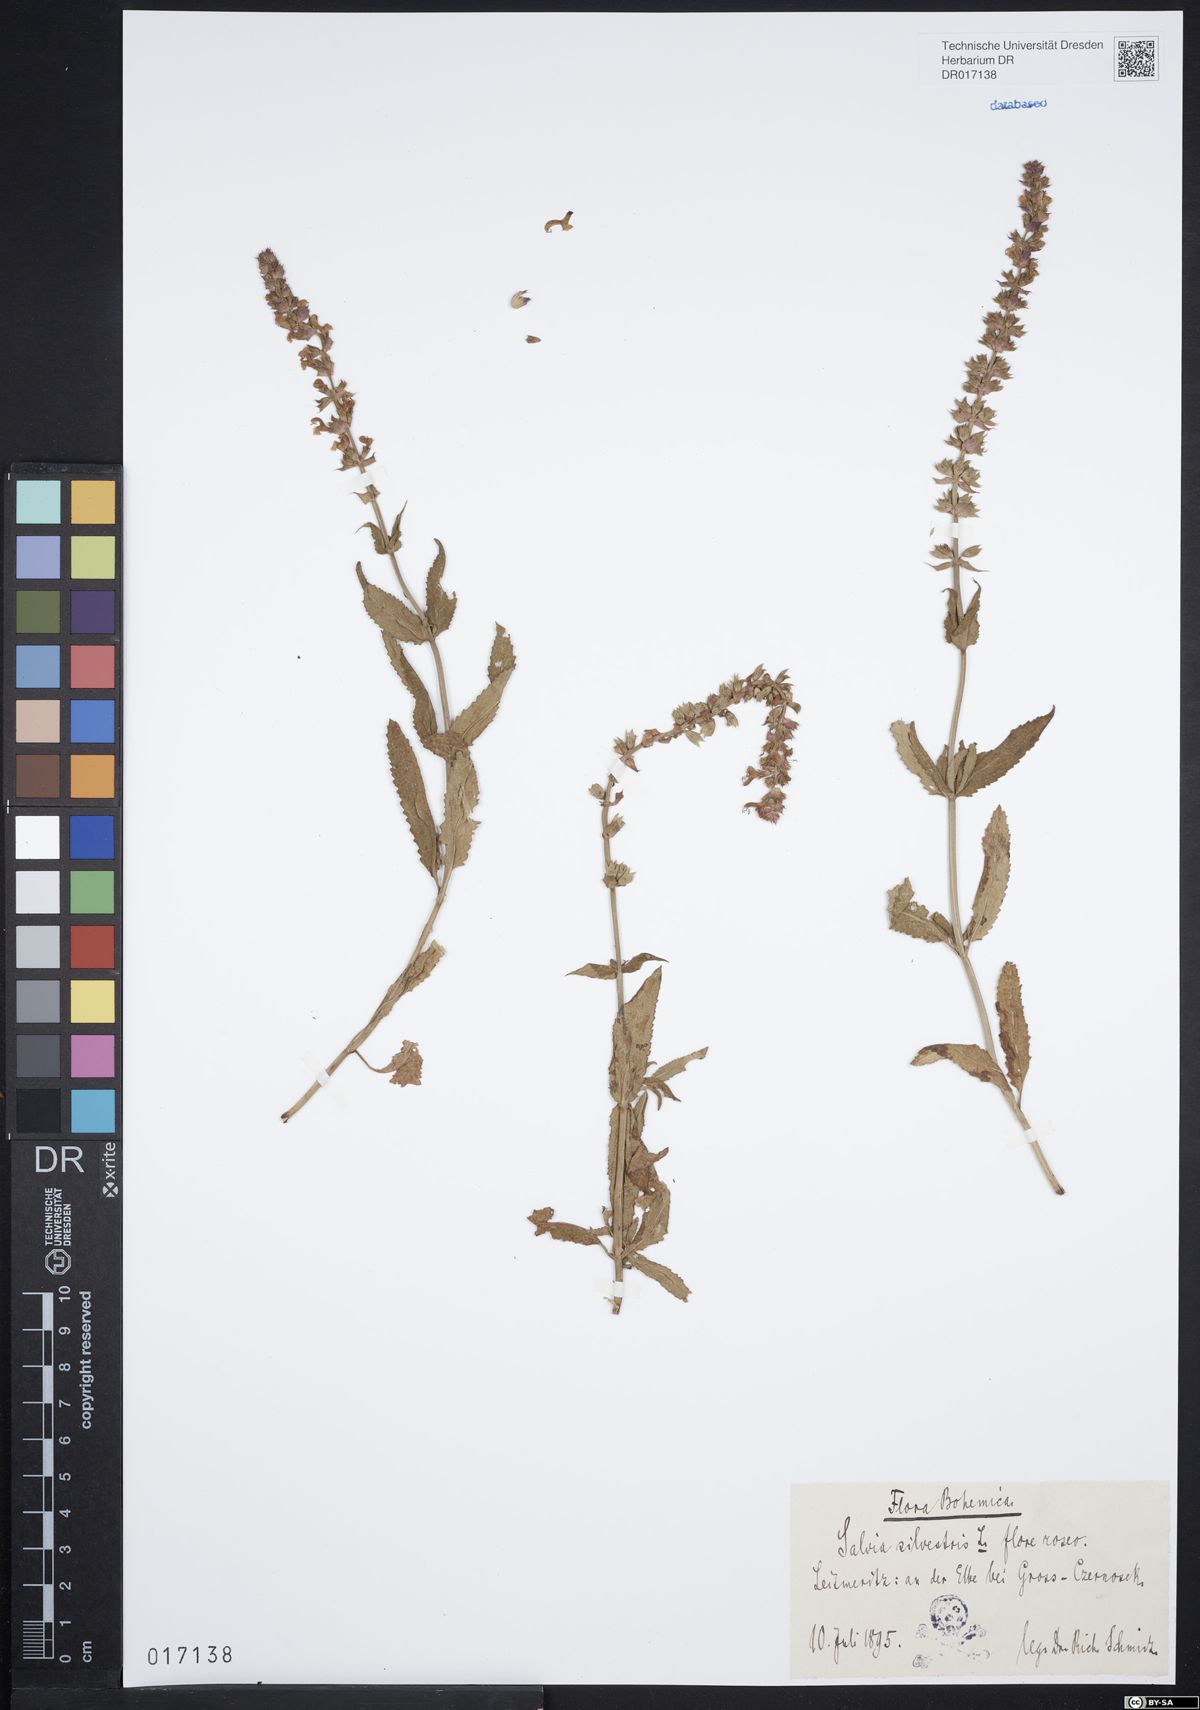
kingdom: Plantae
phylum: Tracheophyta
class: Magnoliopsida
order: Lamiales
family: Lamiaceae
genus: Salvia
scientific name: Salvia nemorosa
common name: Balkan clary
